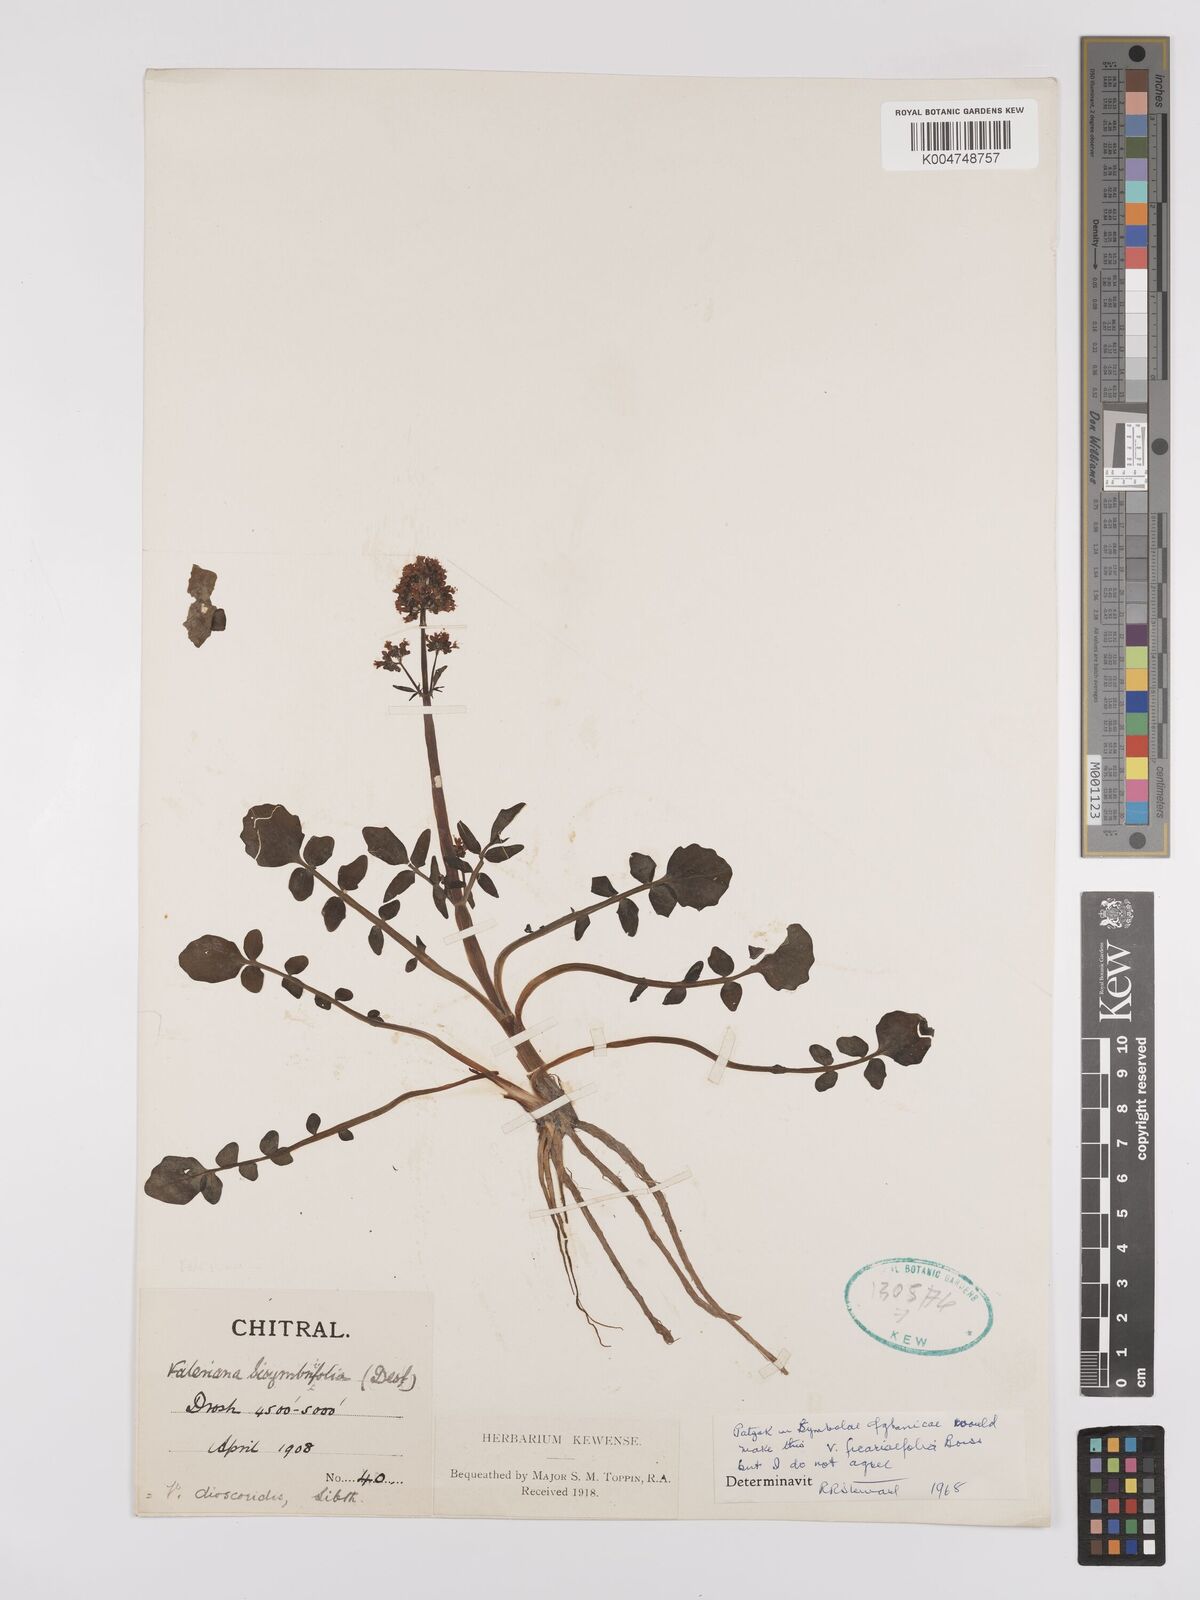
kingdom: Plantae
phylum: Tracheophyta
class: Magnoliopsida
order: Dipsacales
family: Caprifoliaceae
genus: Valeriana
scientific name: Valeriana
